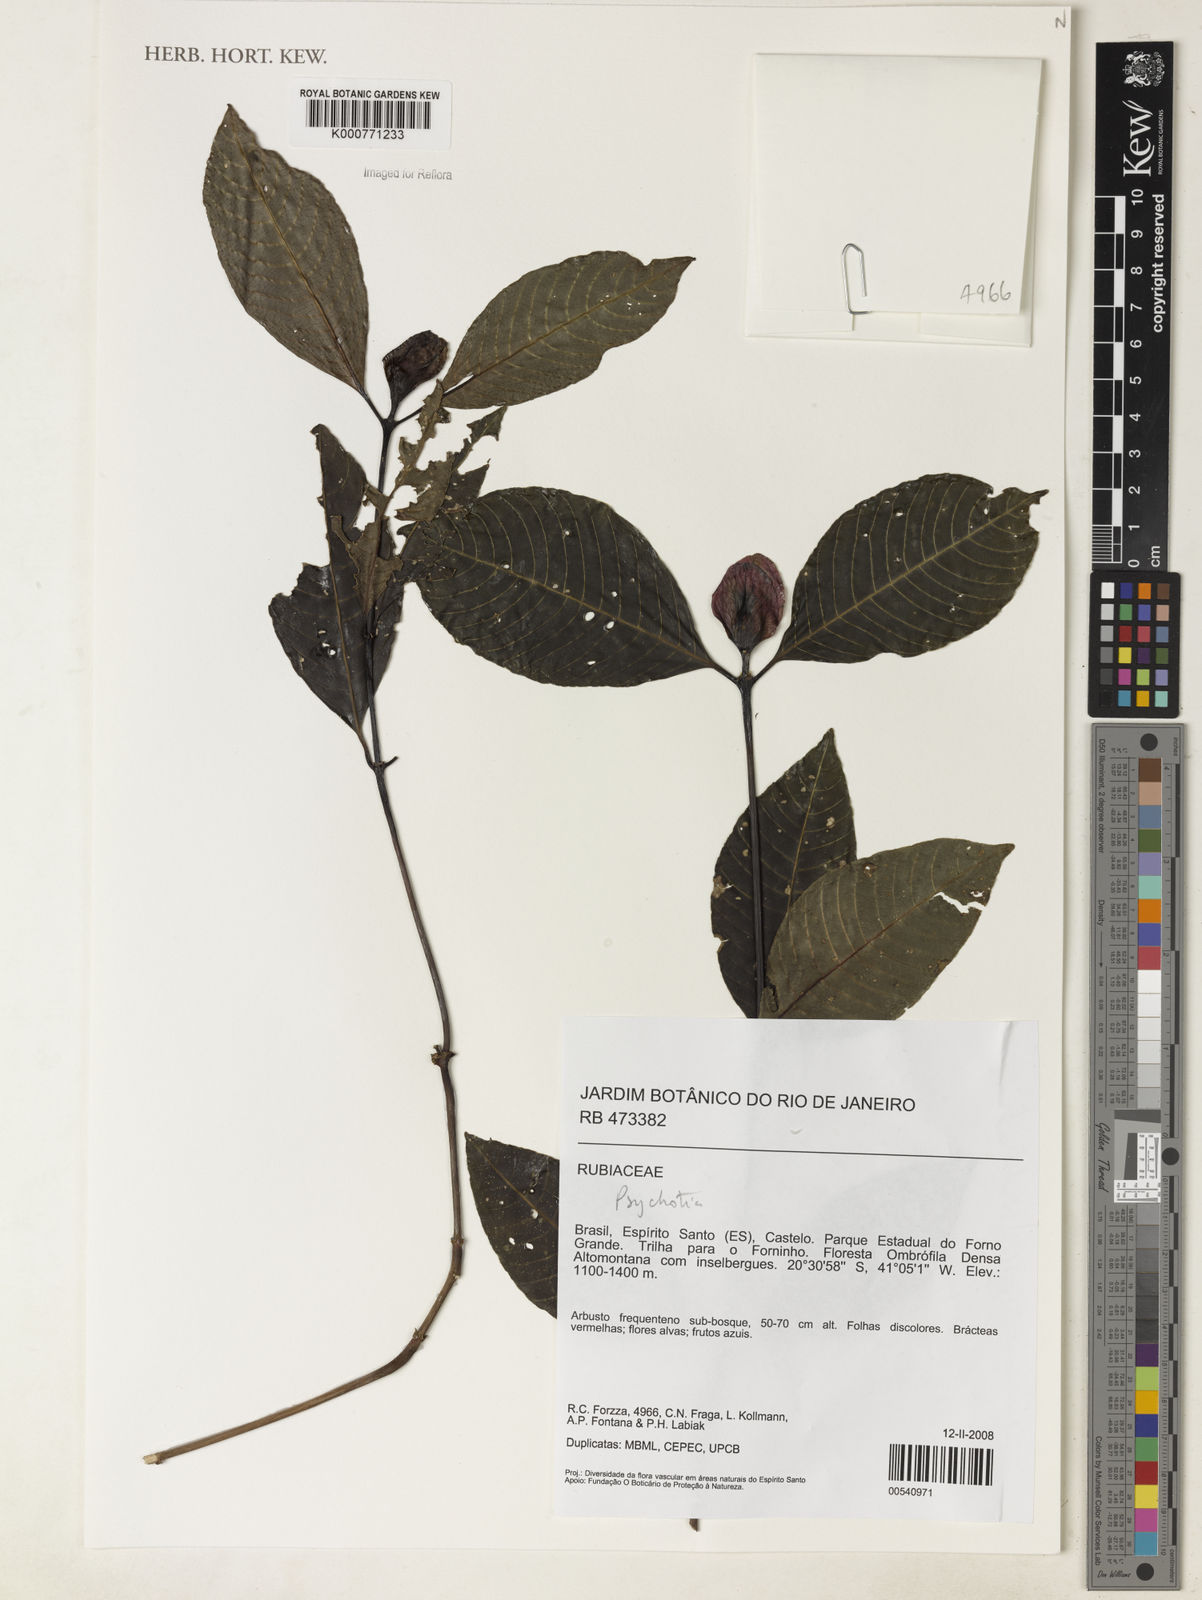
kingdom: Plantae
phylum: Tracheophyta
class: Magnoliopsida
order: Gentianales
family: Rubiaceae
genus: Psychotria
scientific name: Psychotria
